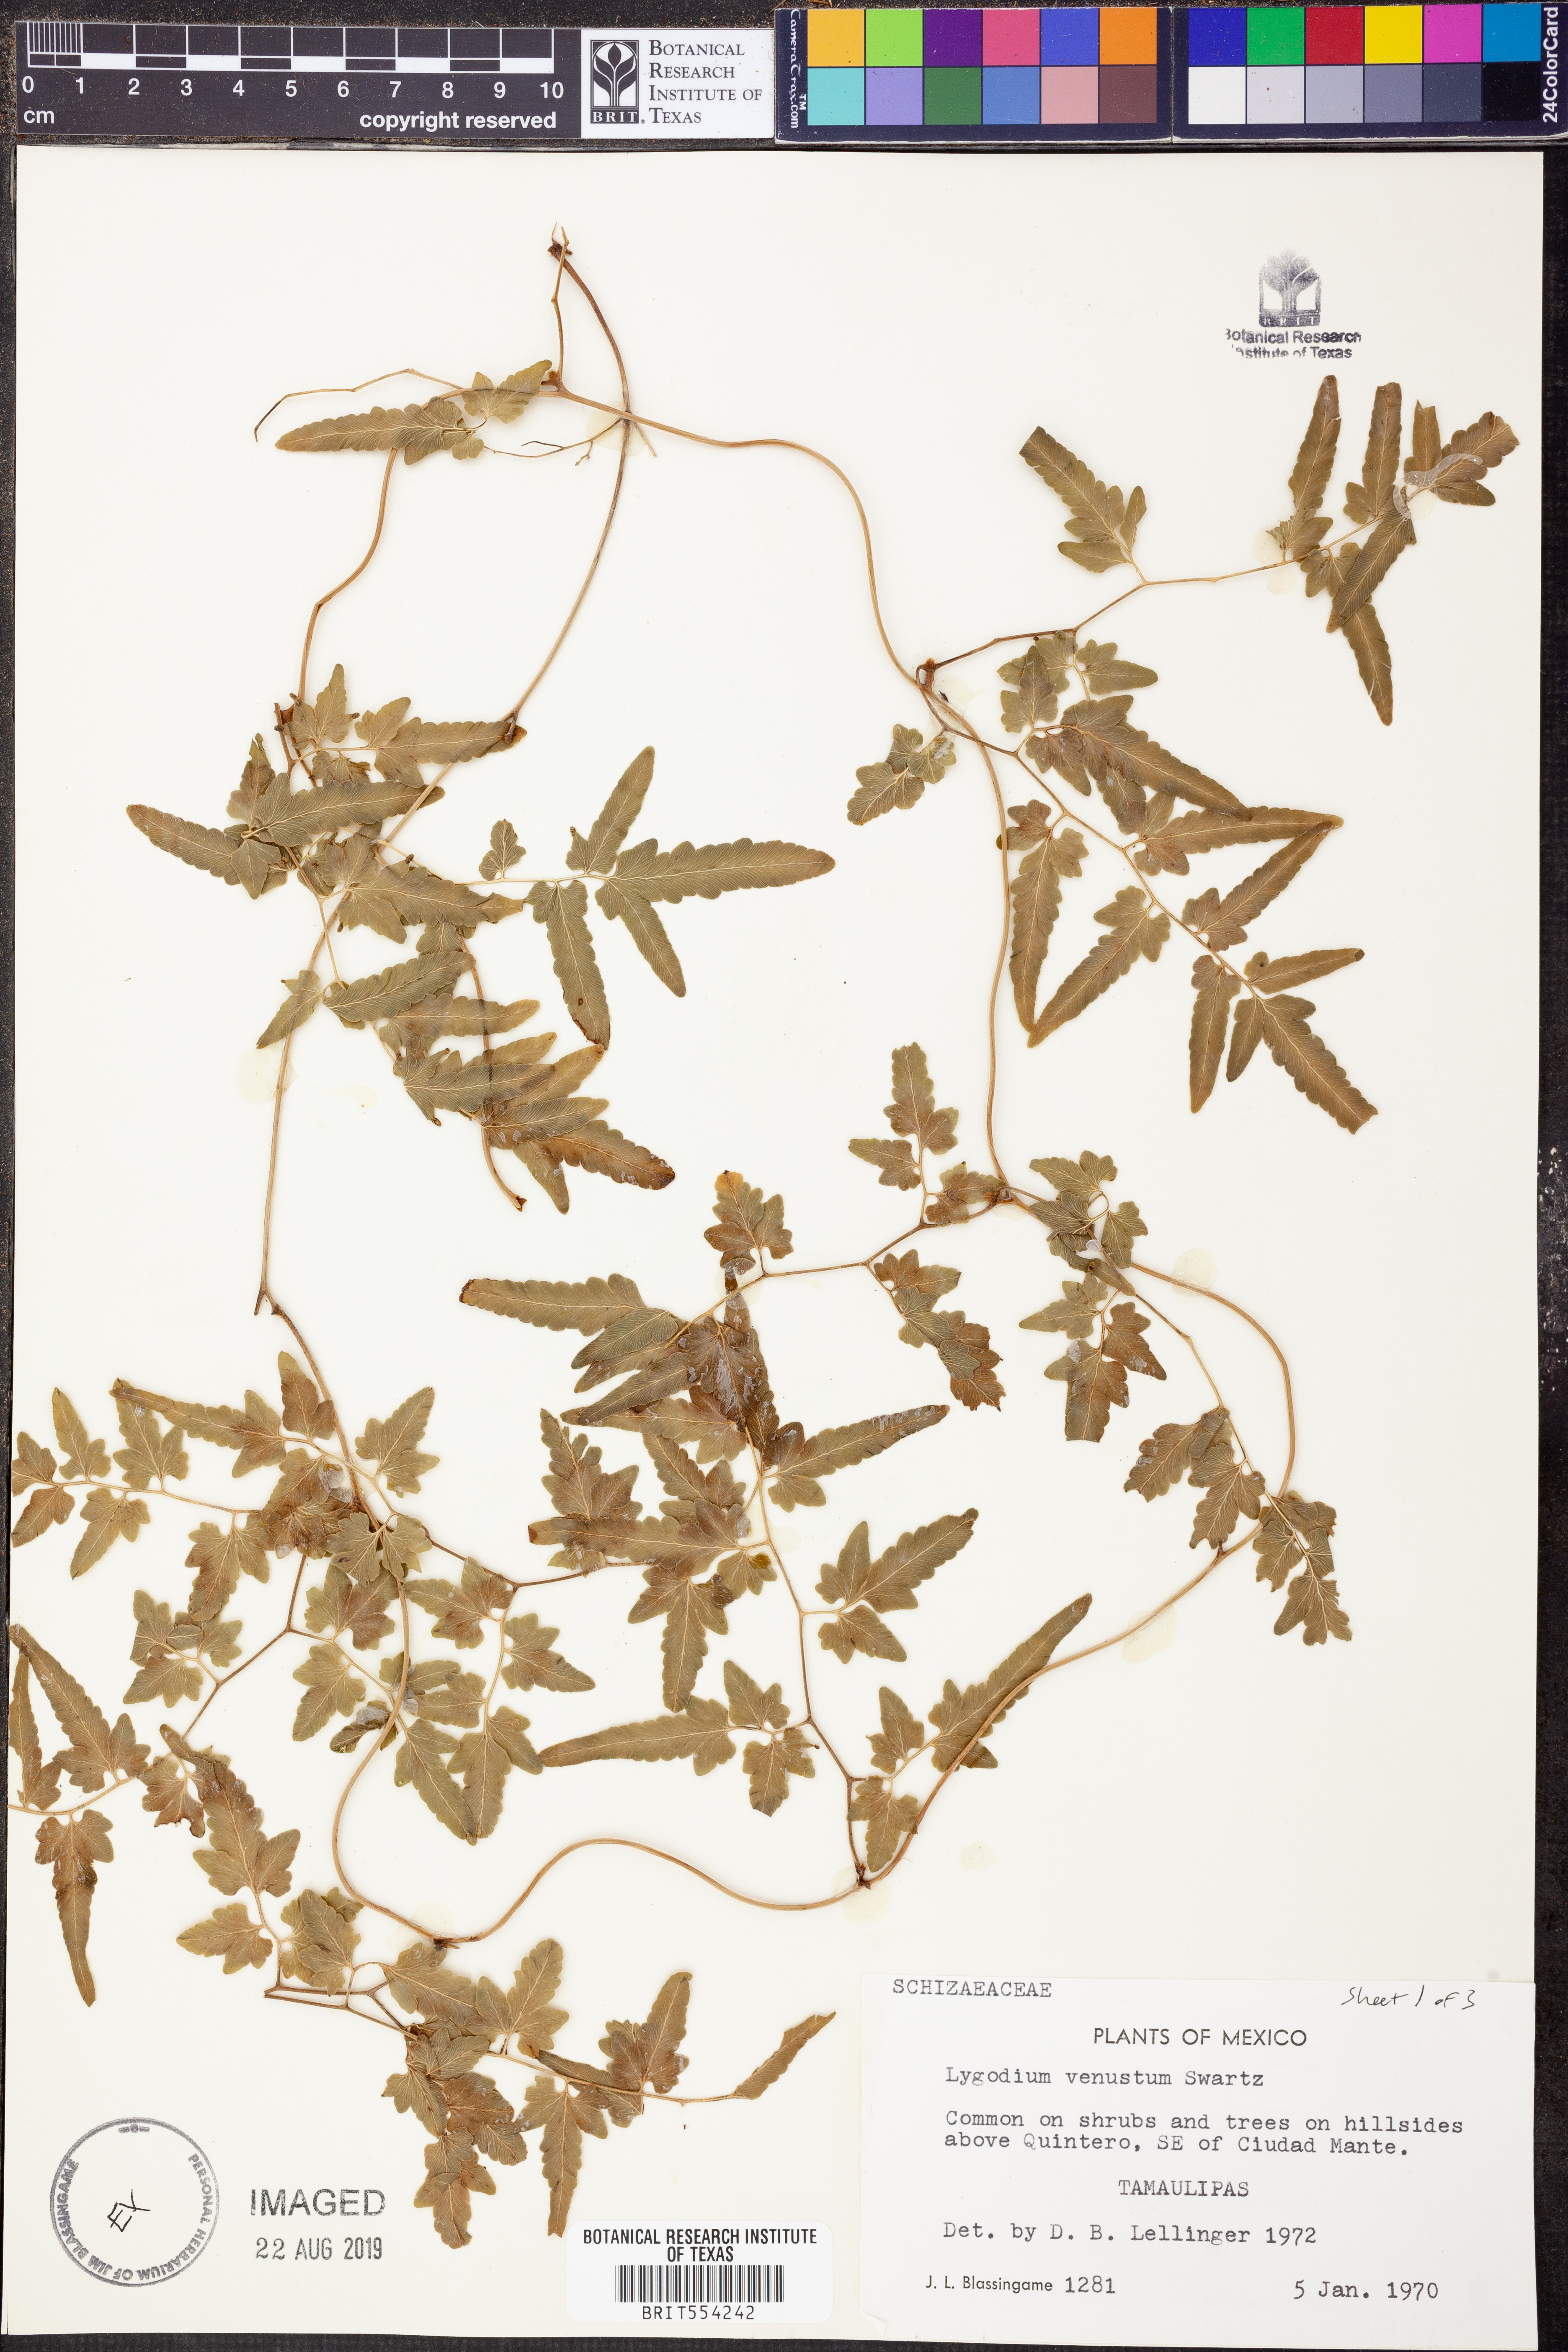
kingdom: Plantae
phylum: Tracheophyta
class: Polypodiopsida
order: Schizaeales
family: Lygodiaceae
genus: Lygodium
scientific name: Lygodium venustum
